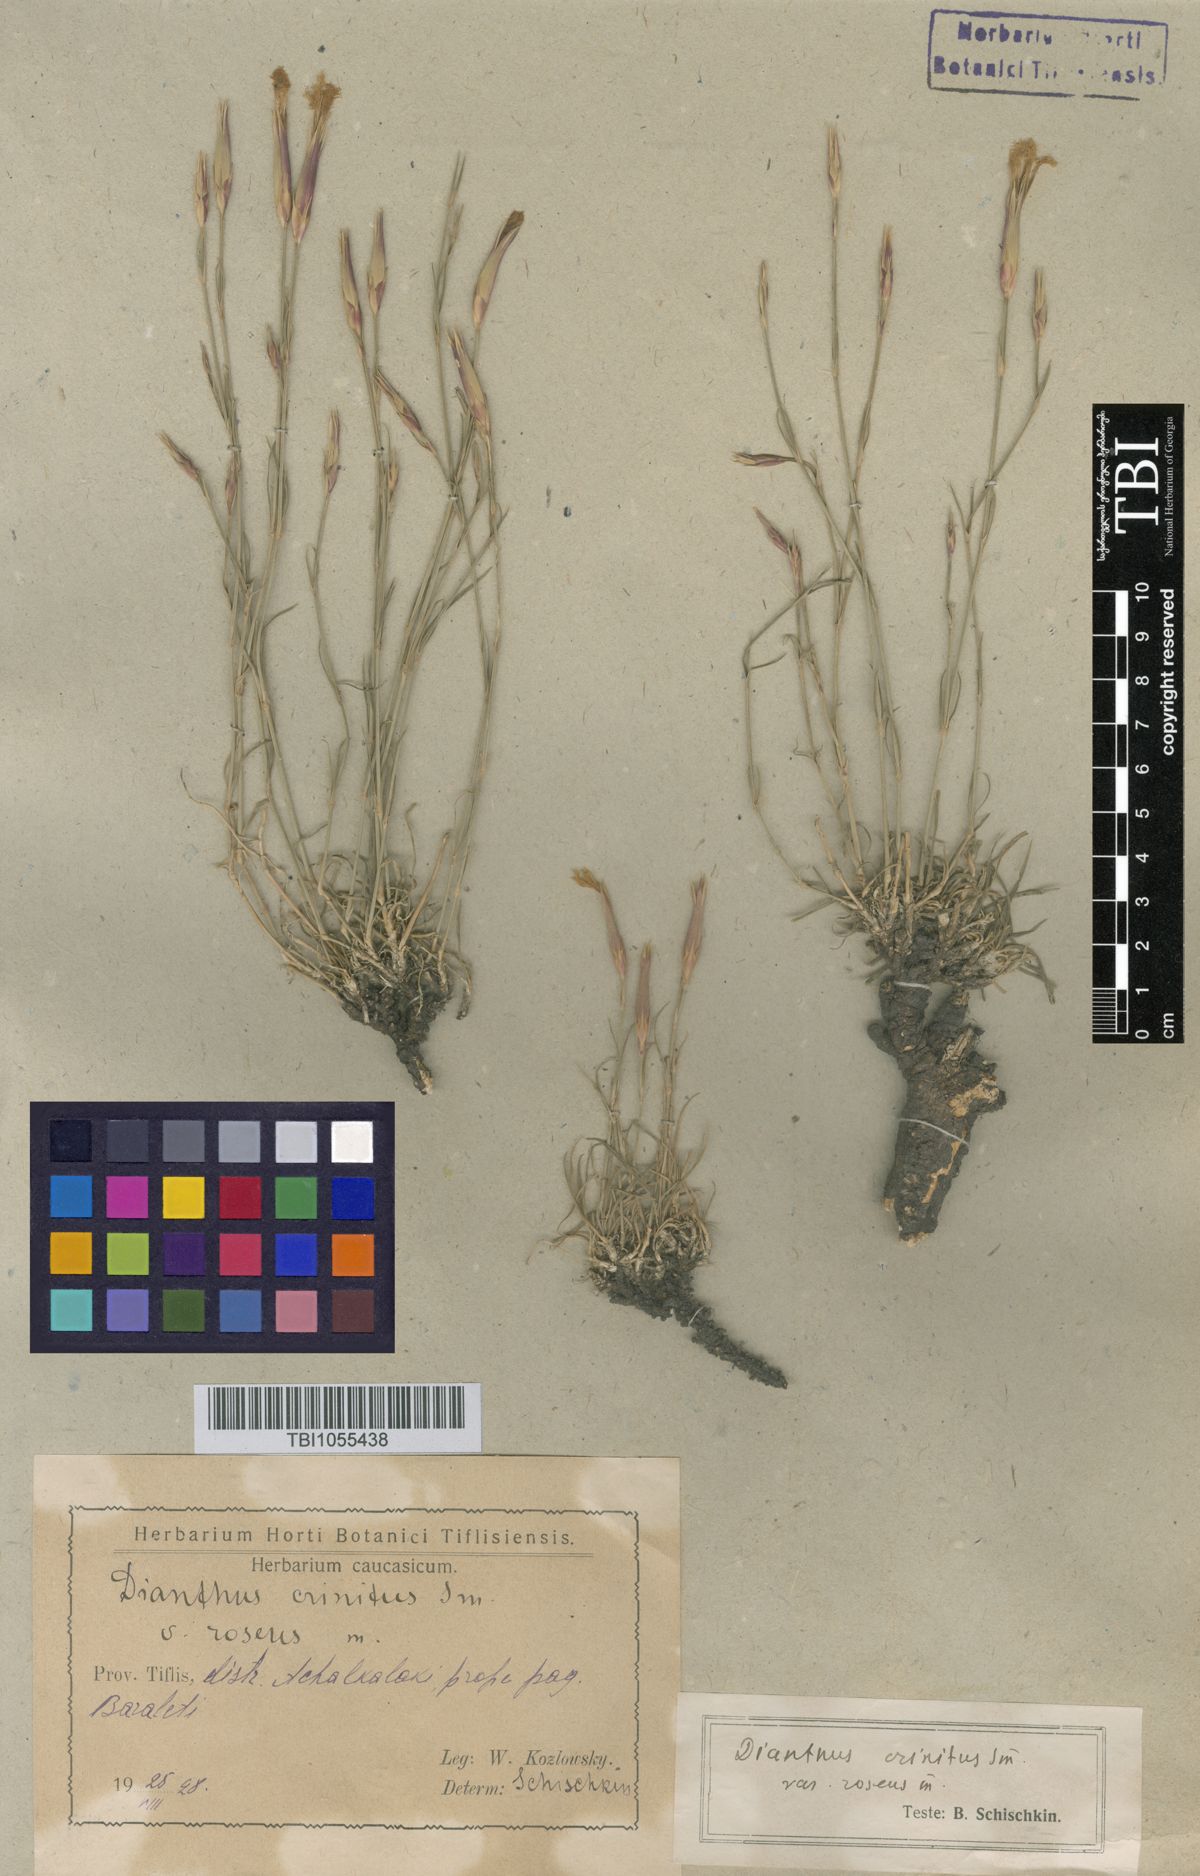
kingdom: Plantae
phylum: Tracheophyta
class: Magnoliopsida
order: Caryophyllales
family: Caryophyllaceae
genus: Dianthus
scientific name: Dianthus crinitus
